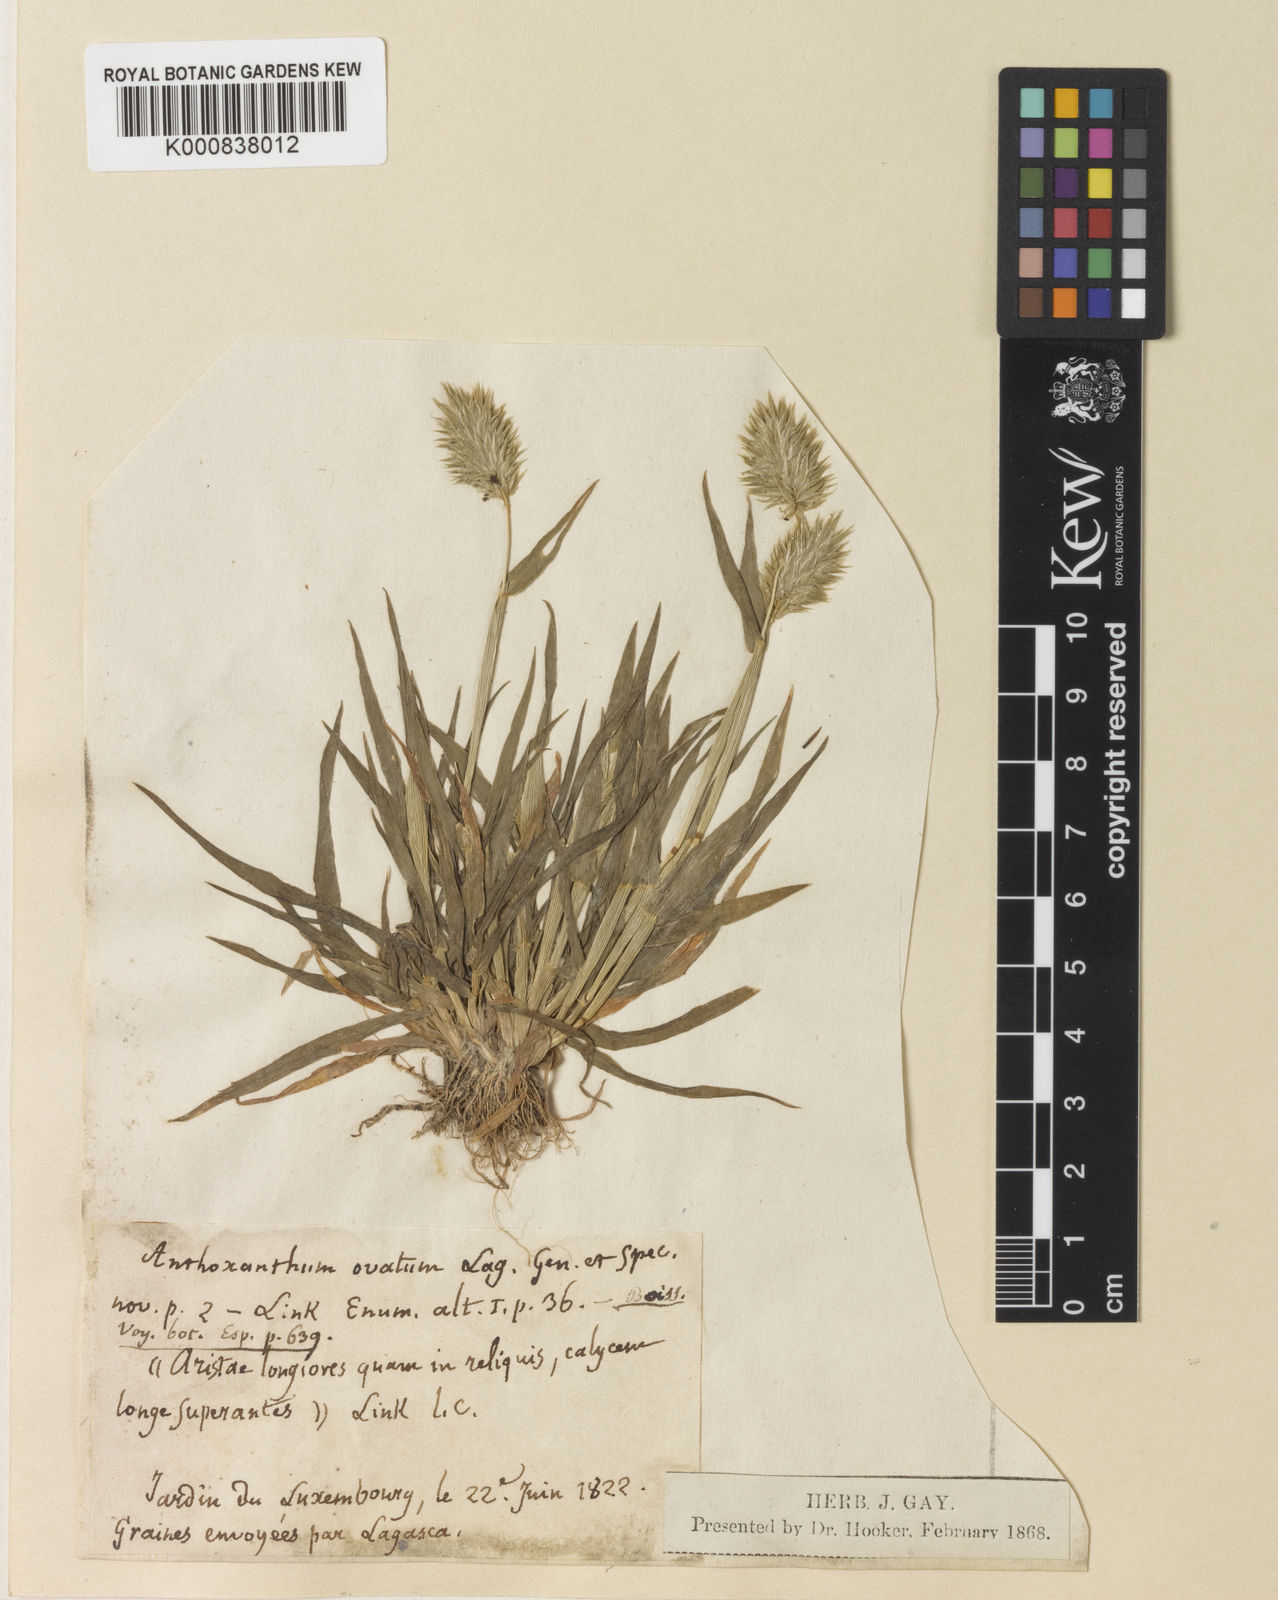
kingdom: Plantae
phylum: Tracheophyta
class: Liliopsida
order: Poales
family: Poaceae
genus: Anthoxanthum
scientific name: Anthoxanthum ovatum
